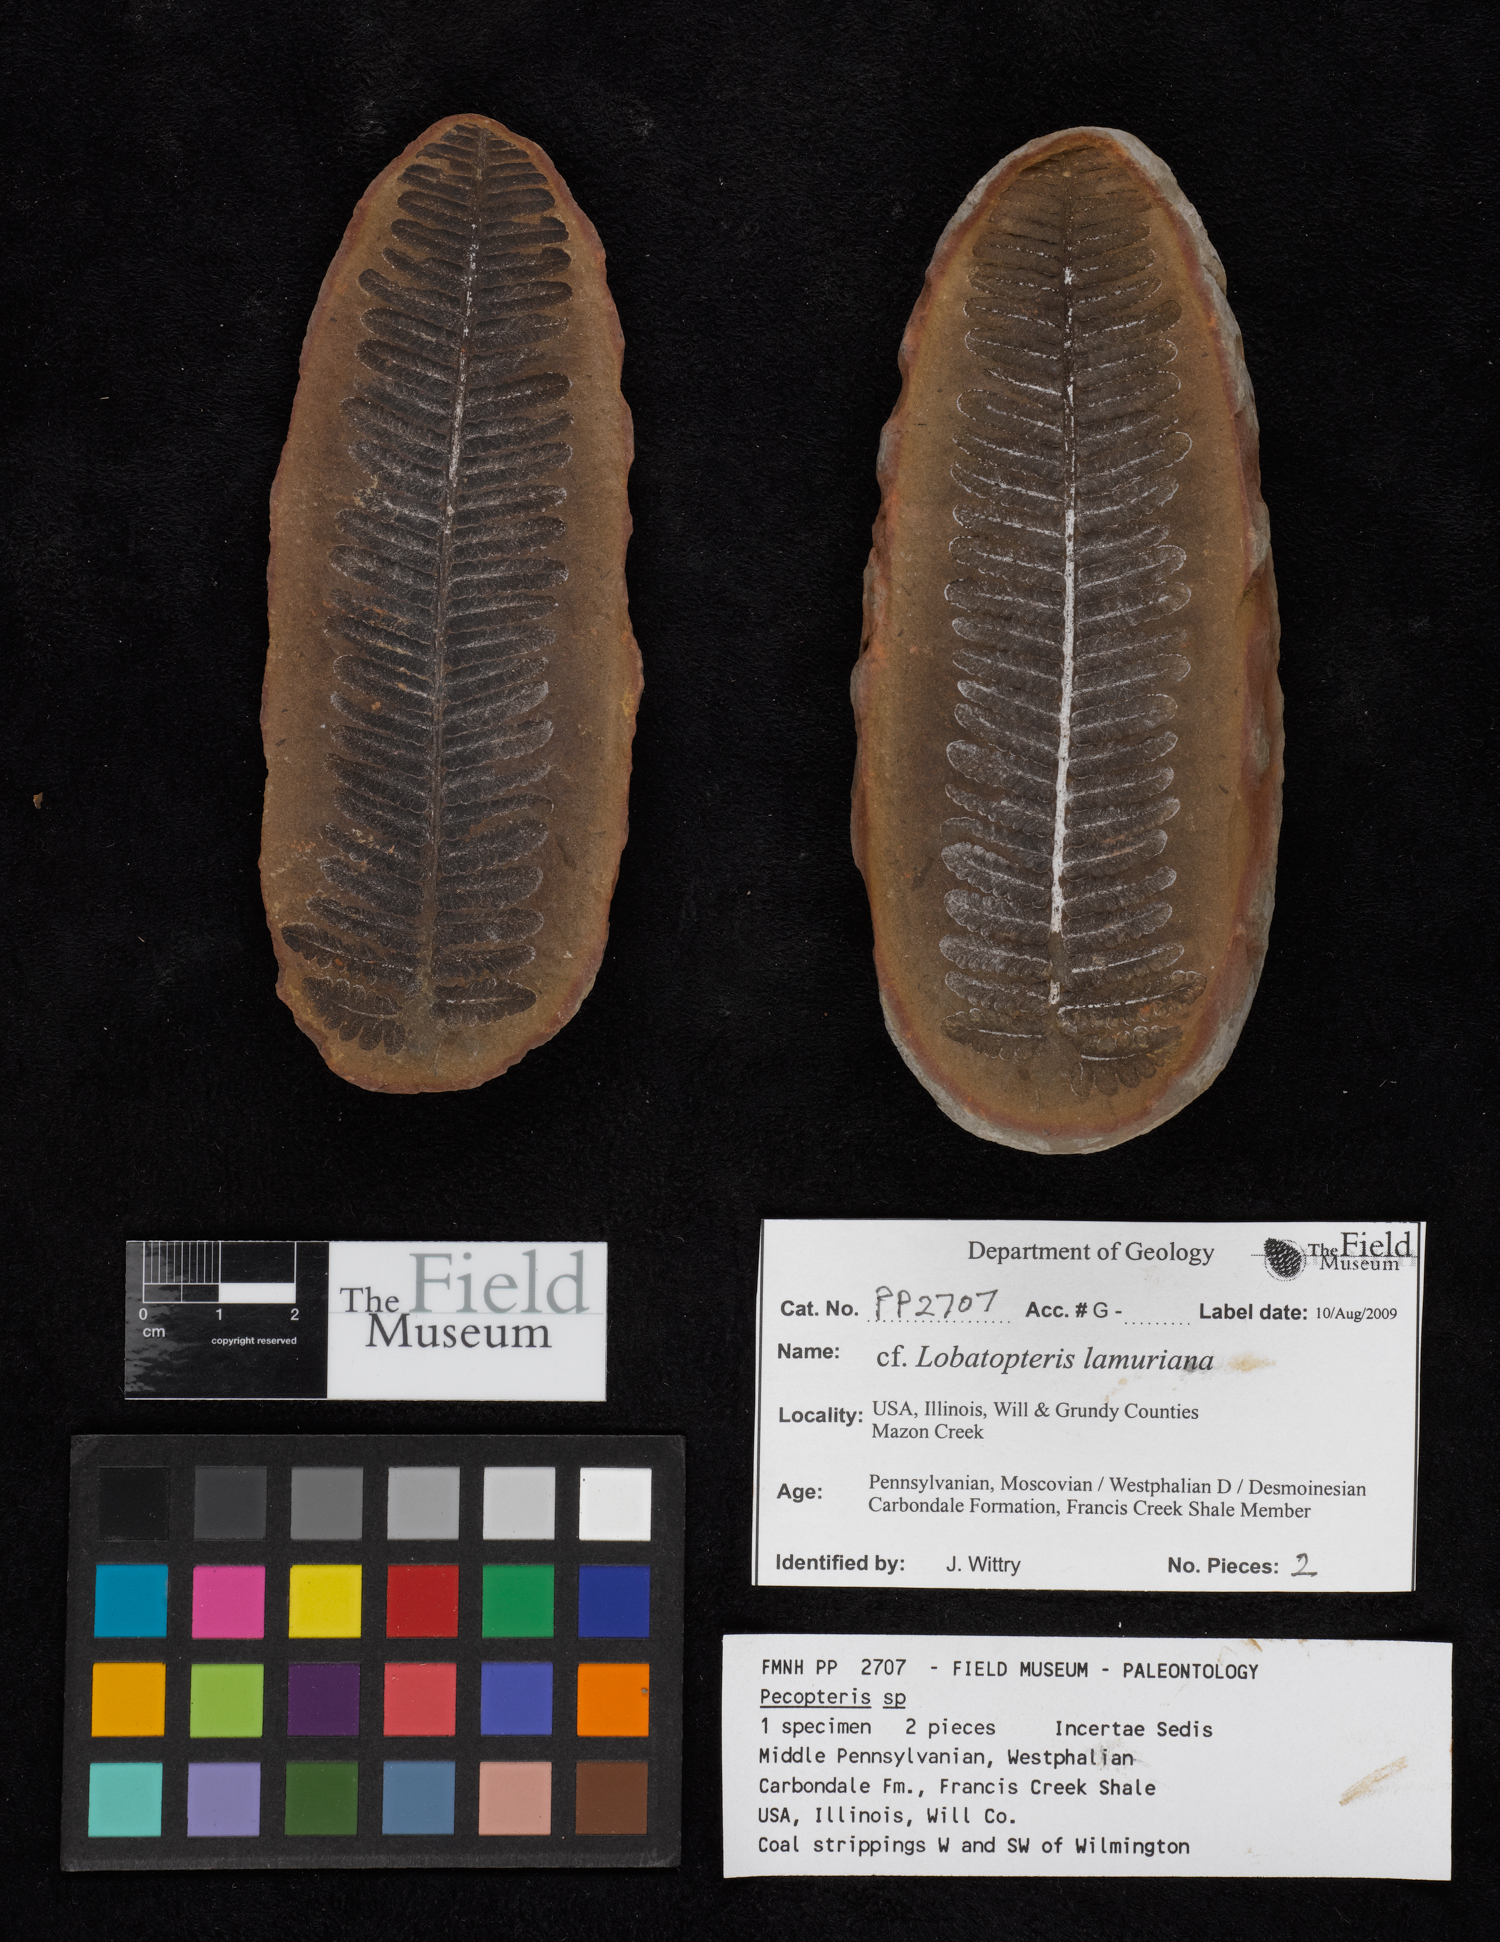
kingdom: Plantae
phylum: Tracheophyta
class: Polypodiopsida
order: Marattiales
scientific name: Marattiales
